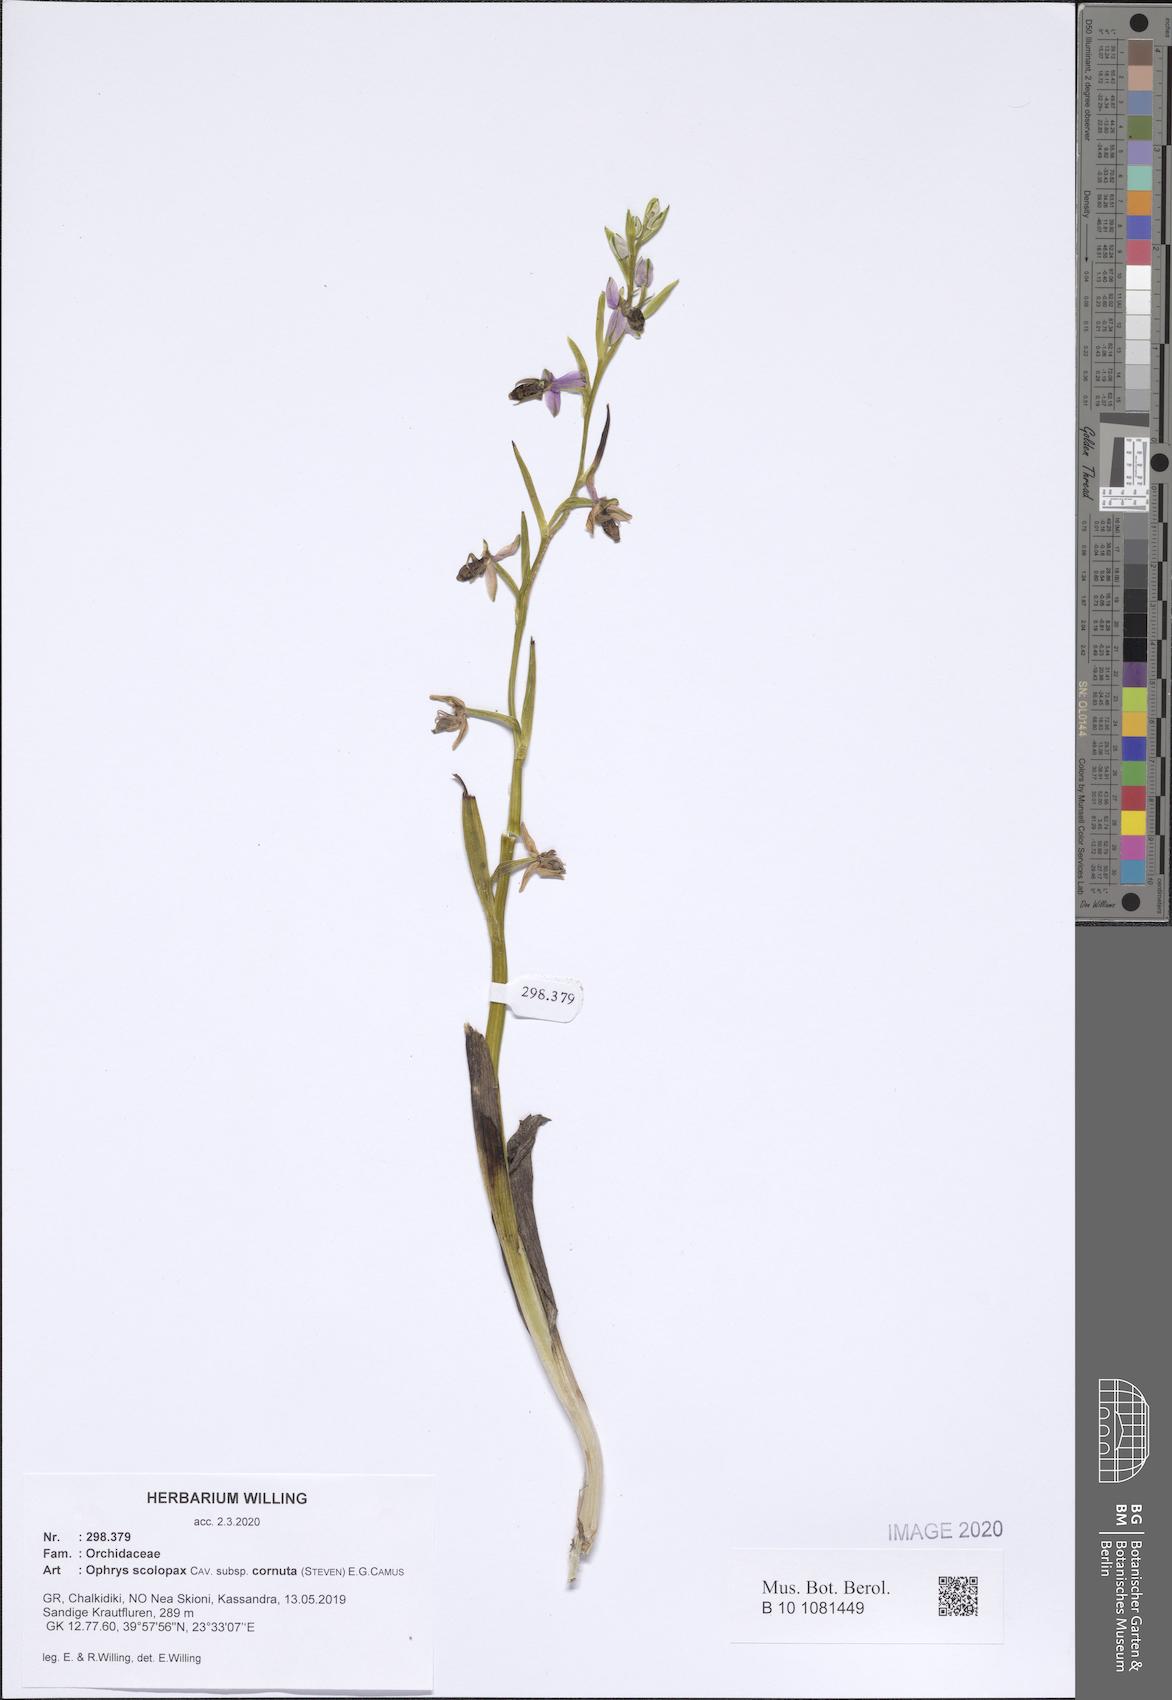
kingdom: Plantae
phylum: Tracheophyta
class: Liliopsida
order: Asparagales
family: Orchidaceae
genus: Ophrys
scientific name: Ophrys scolopax
